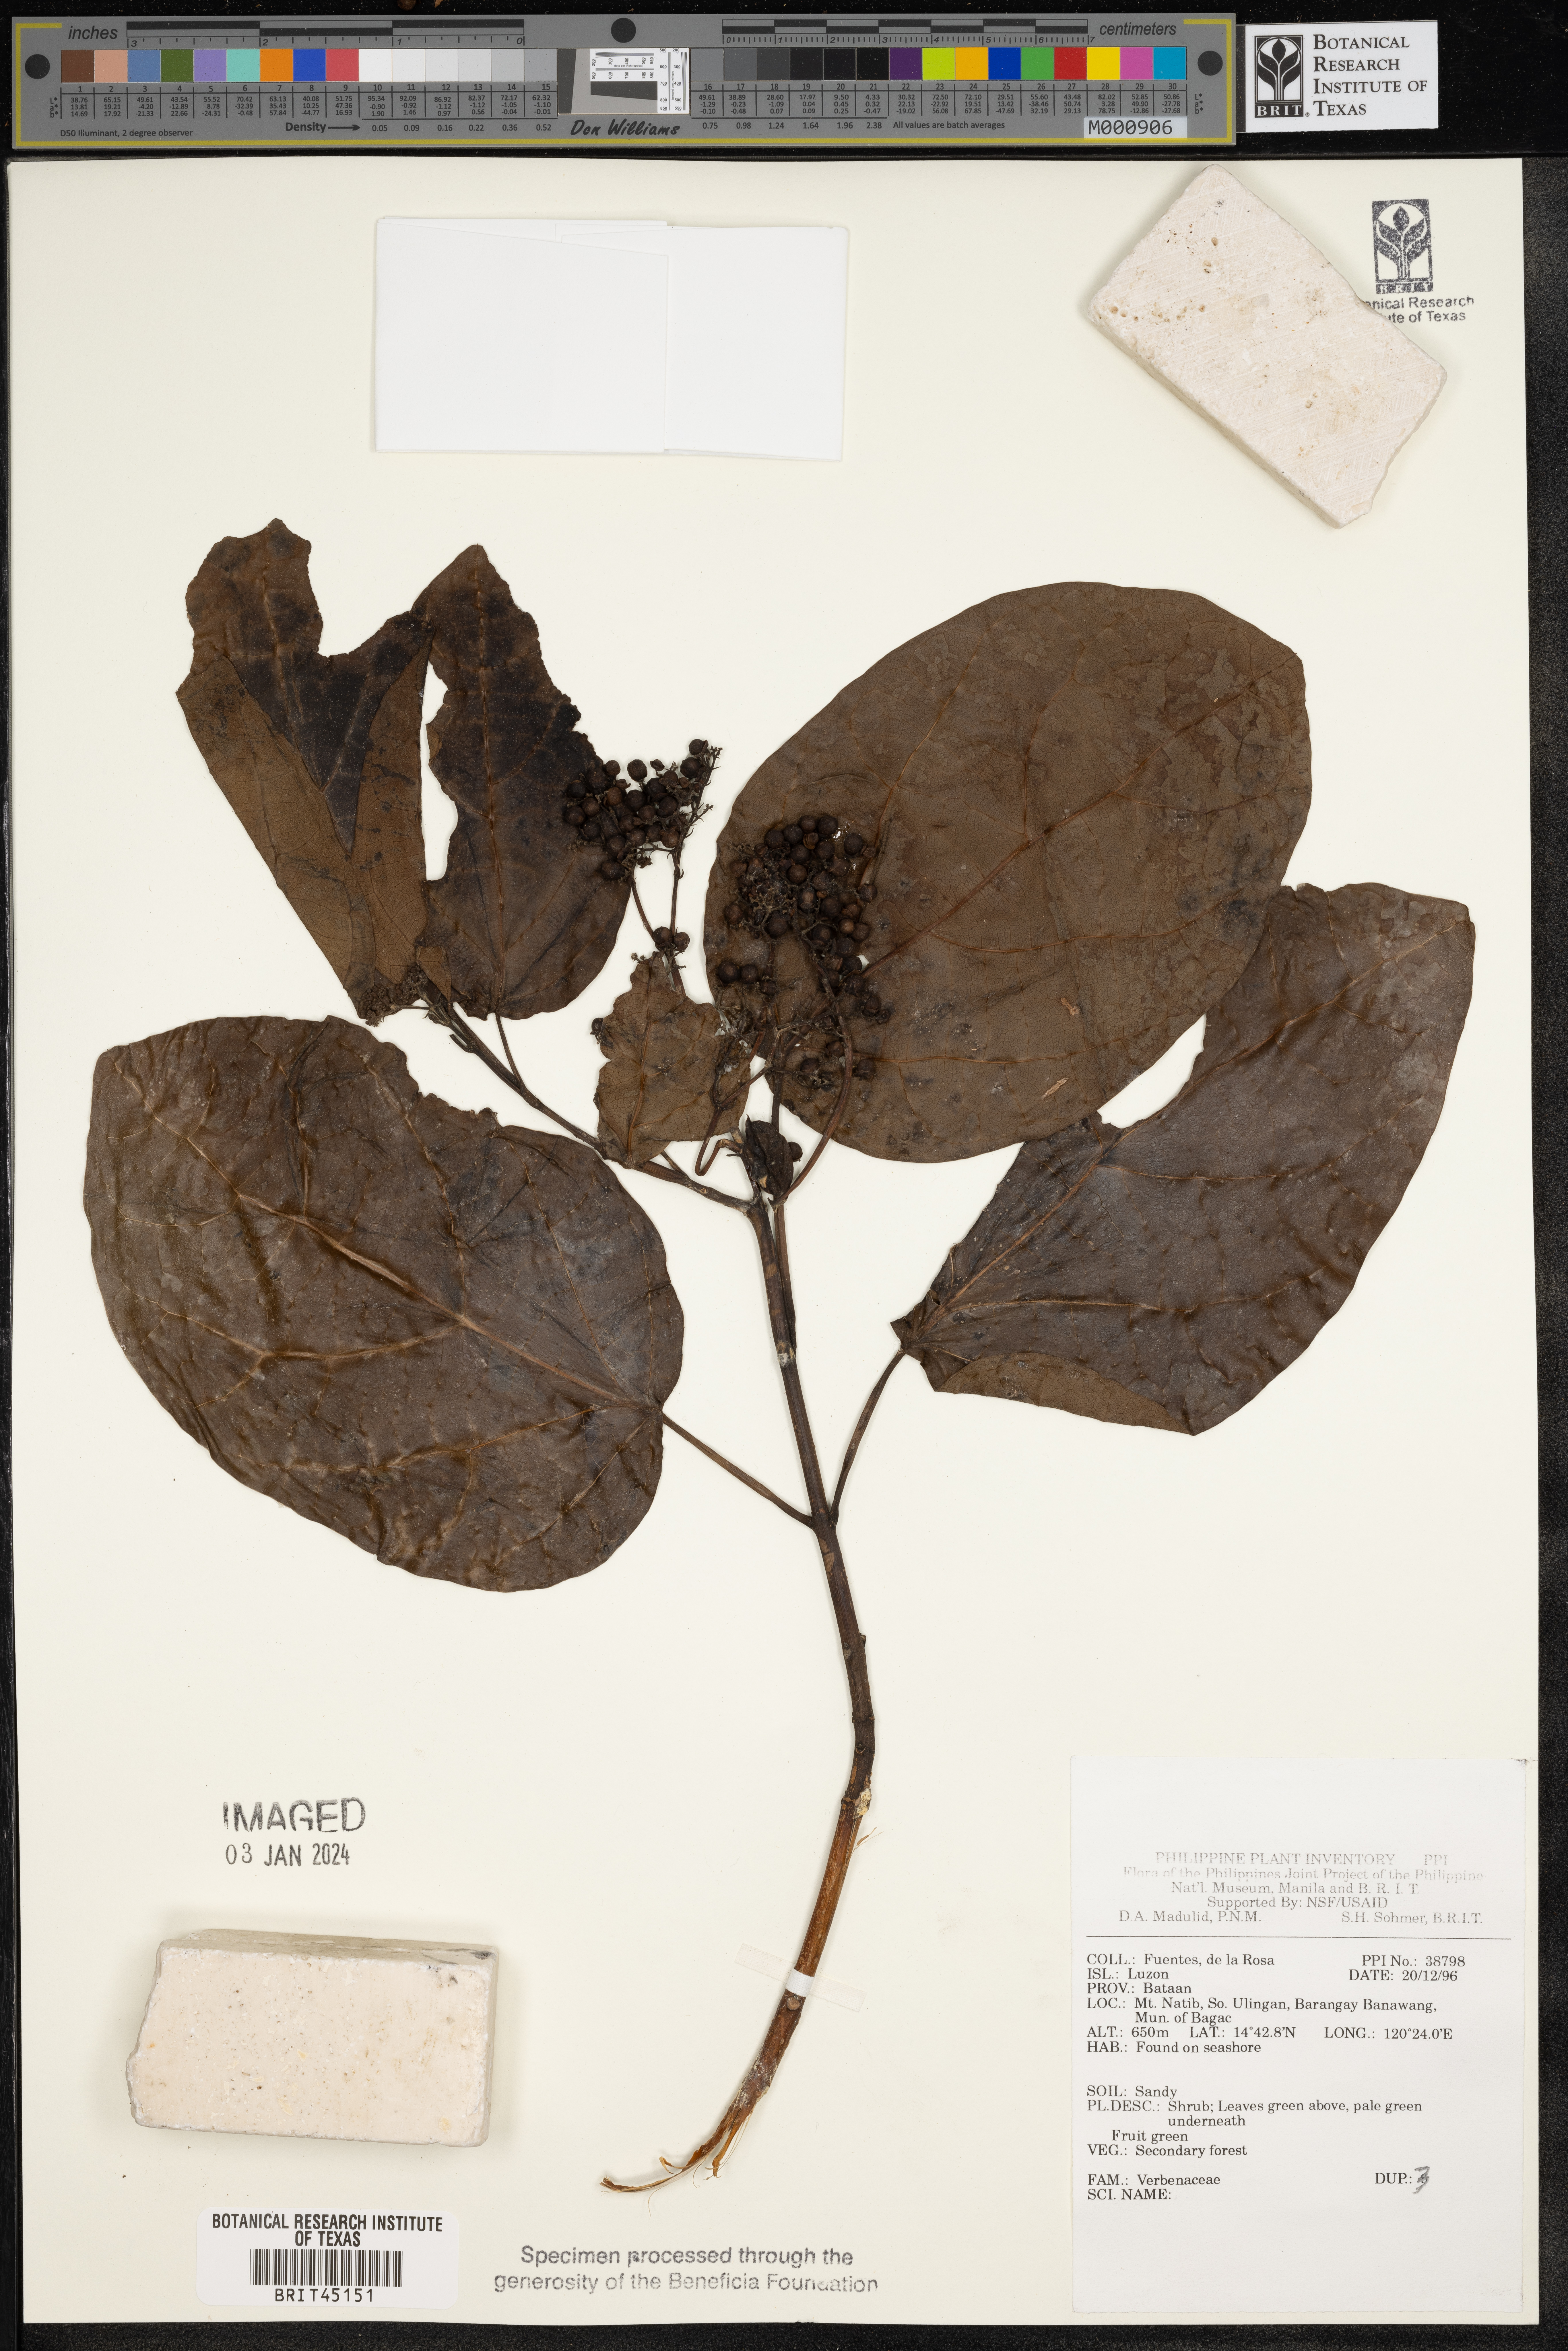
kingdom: Plantae
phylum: Tracheophyta
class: Magnoliopsida
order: Lamiales
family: Verbenaceae
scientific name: Verbenaceae
